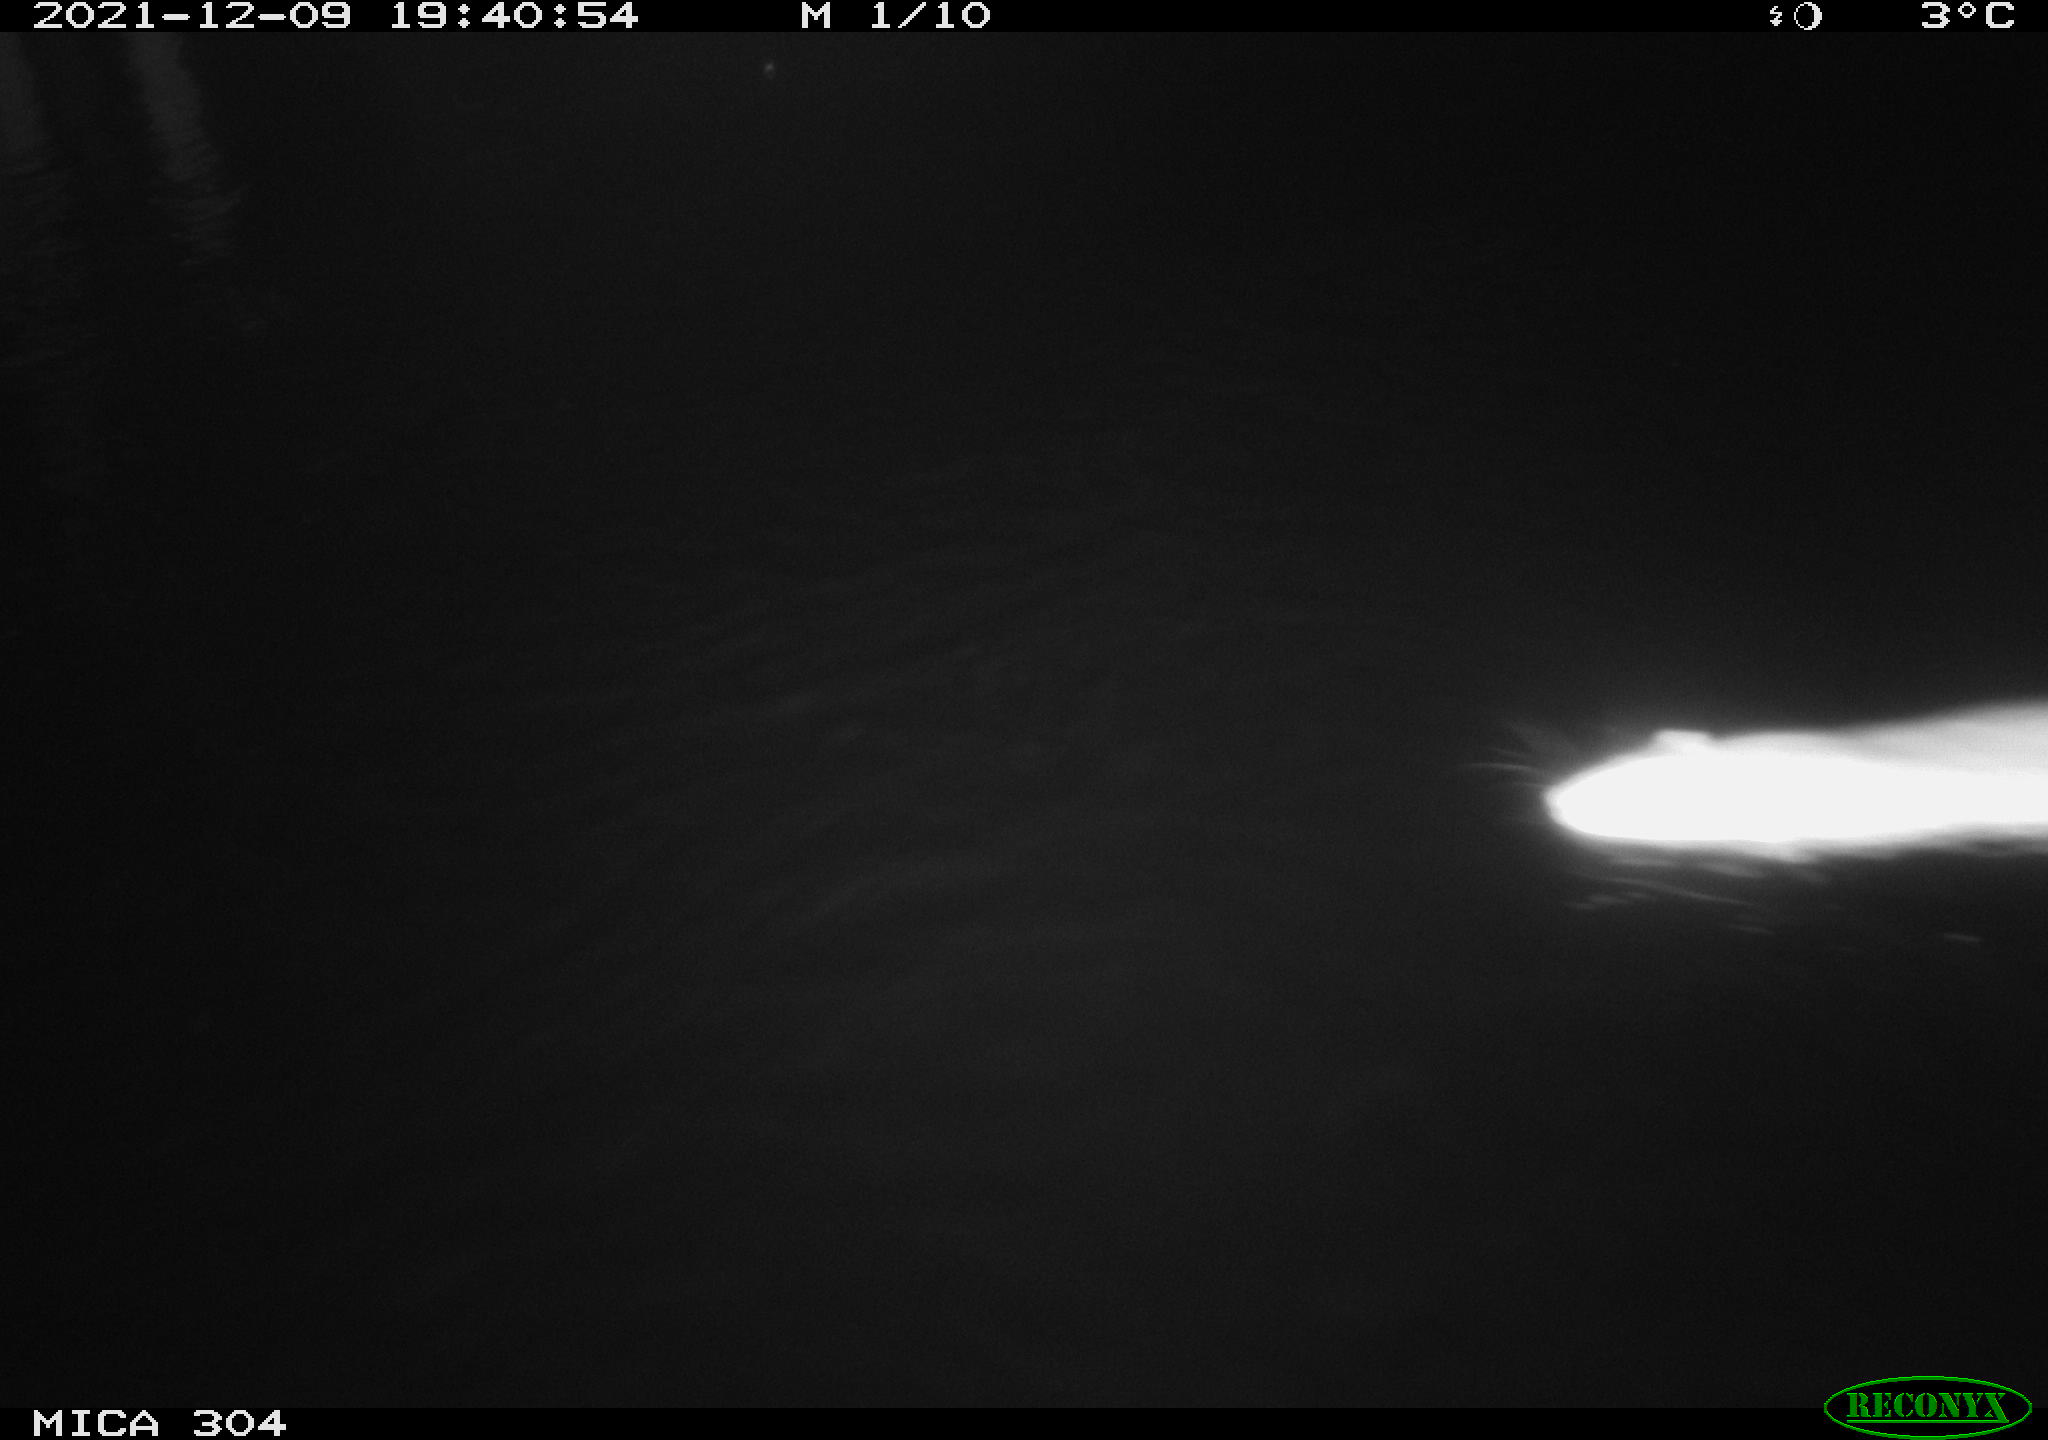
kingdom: Animalia
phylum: Chordata
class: Mammalia
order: Rodentia
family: Muridae
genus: Rattus
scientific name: Rattus norvegicus
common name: Brown rat
